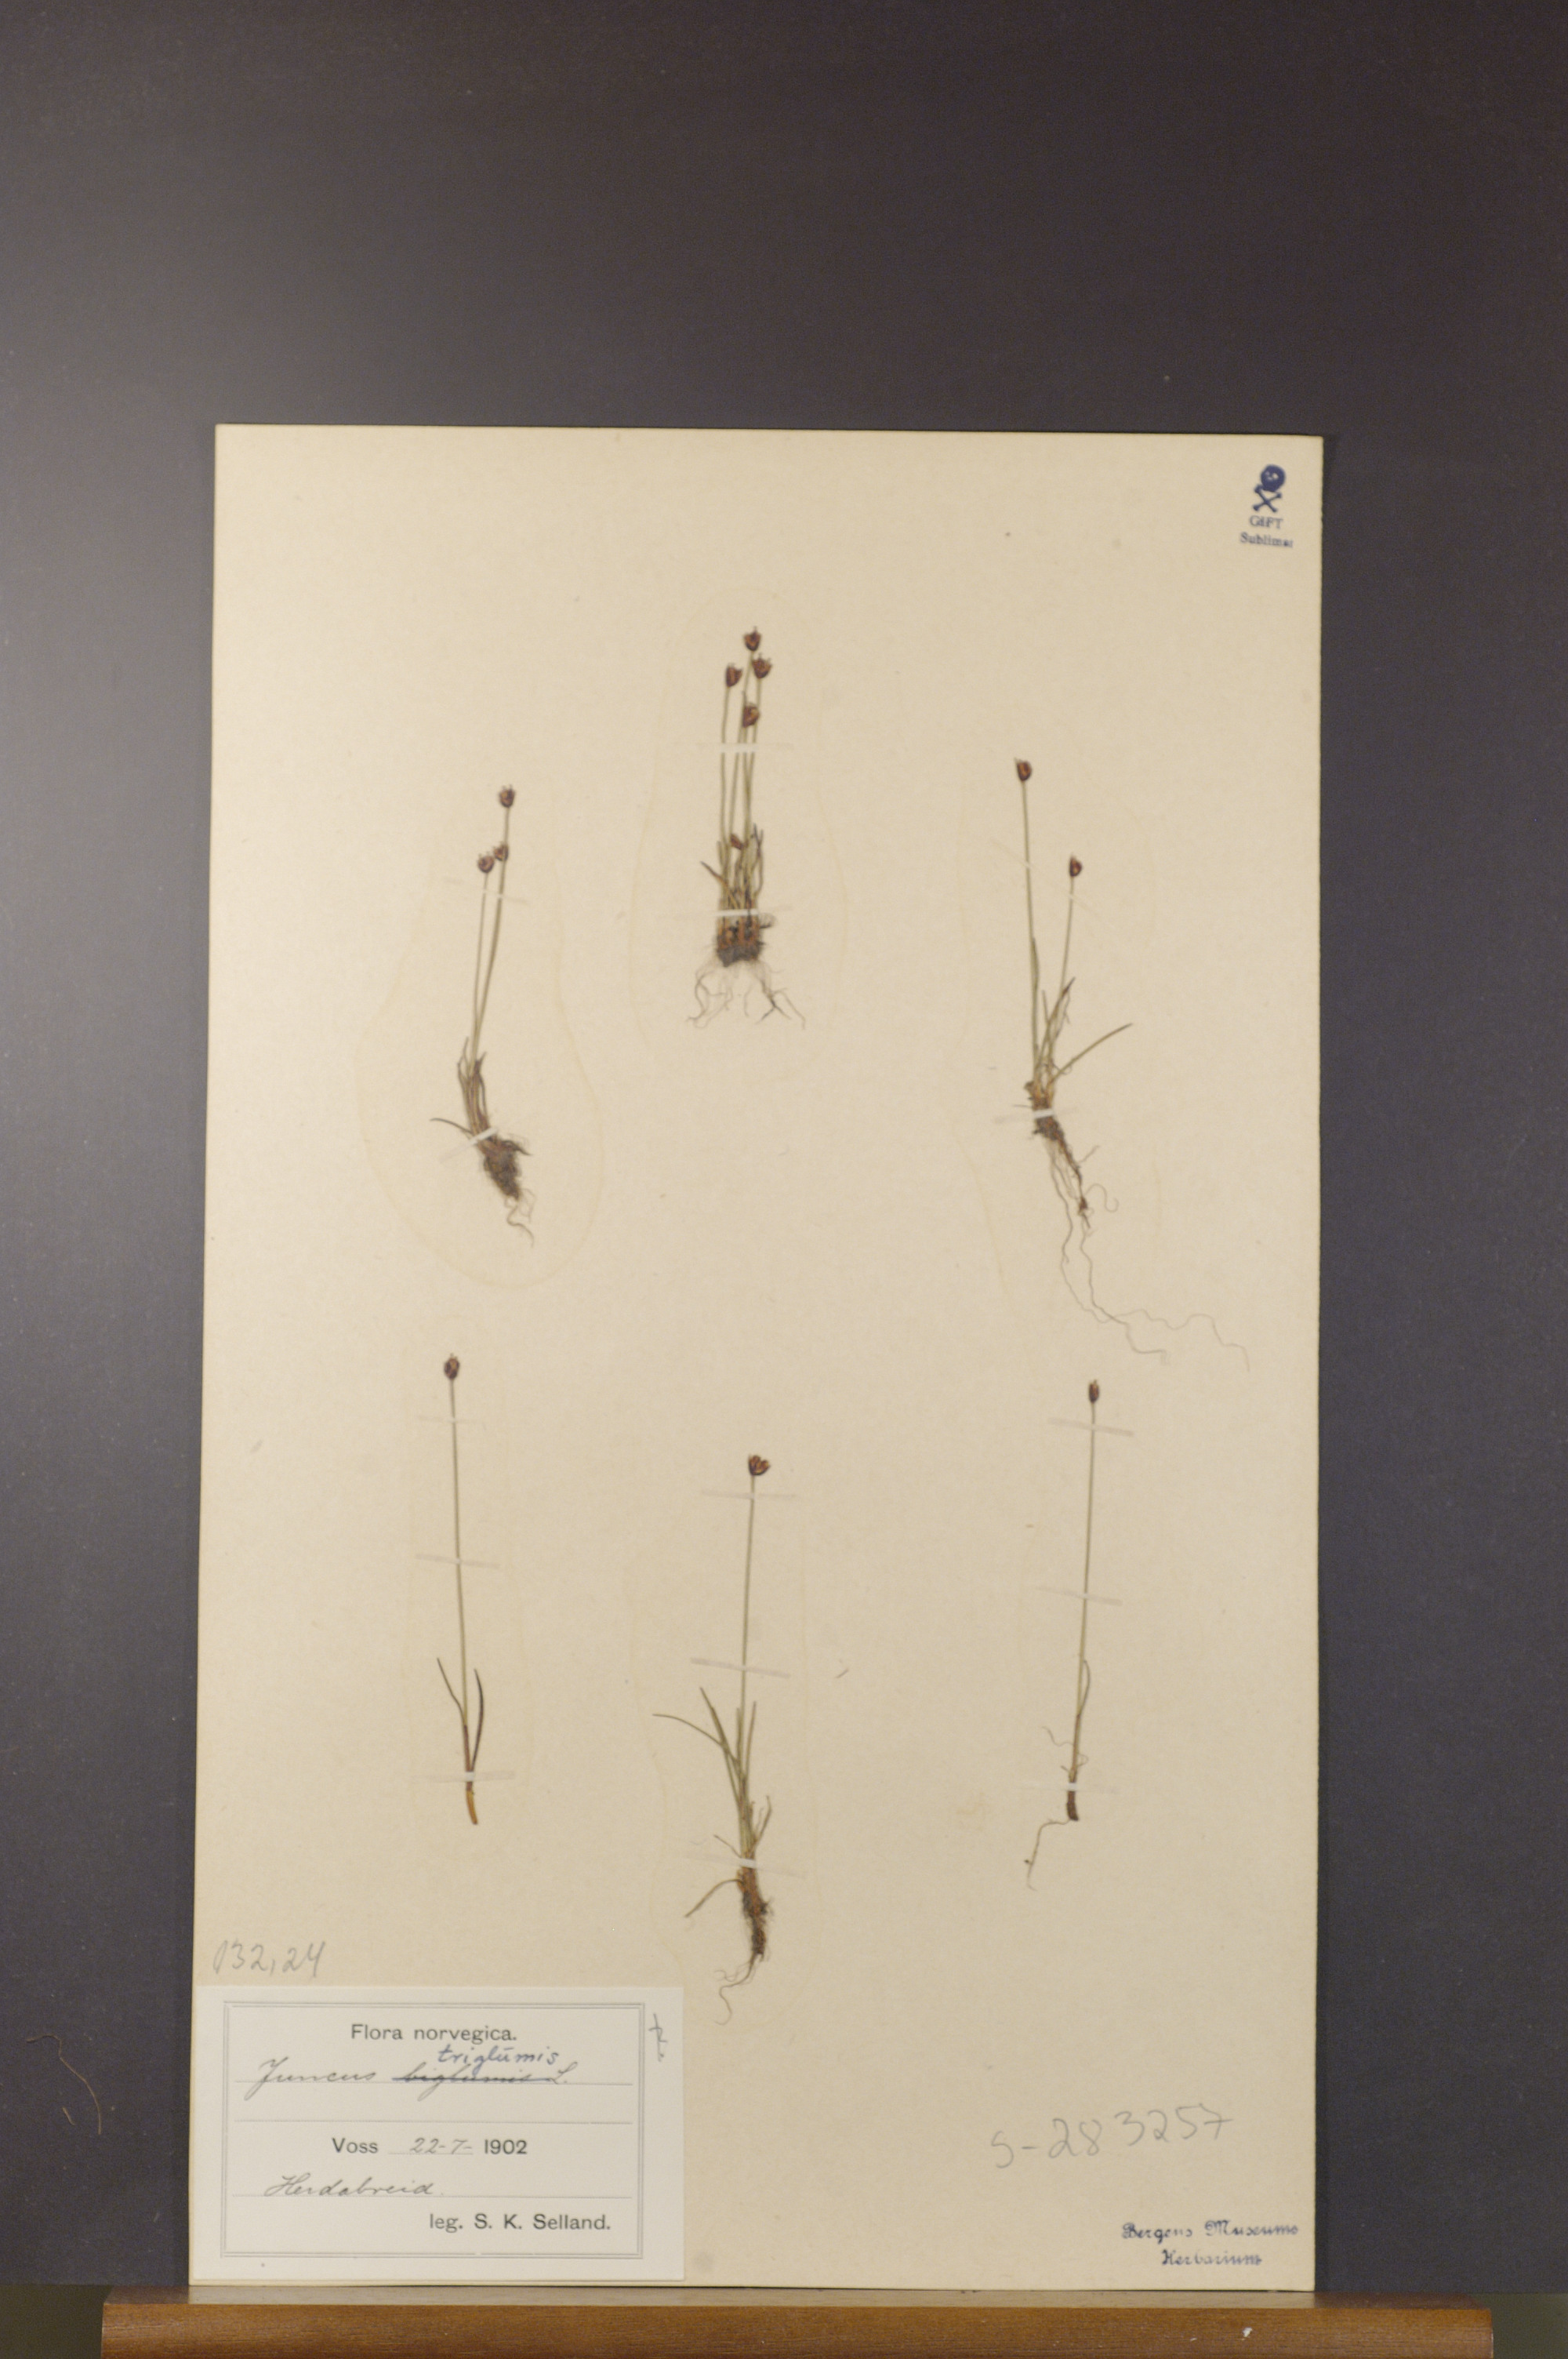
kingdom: Plantae
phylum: Tracheophyta
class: Liliopsida
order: Poales
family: Juncaceae
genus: Juncus
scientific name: Juncus triglumis
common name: Three-flowered rush
